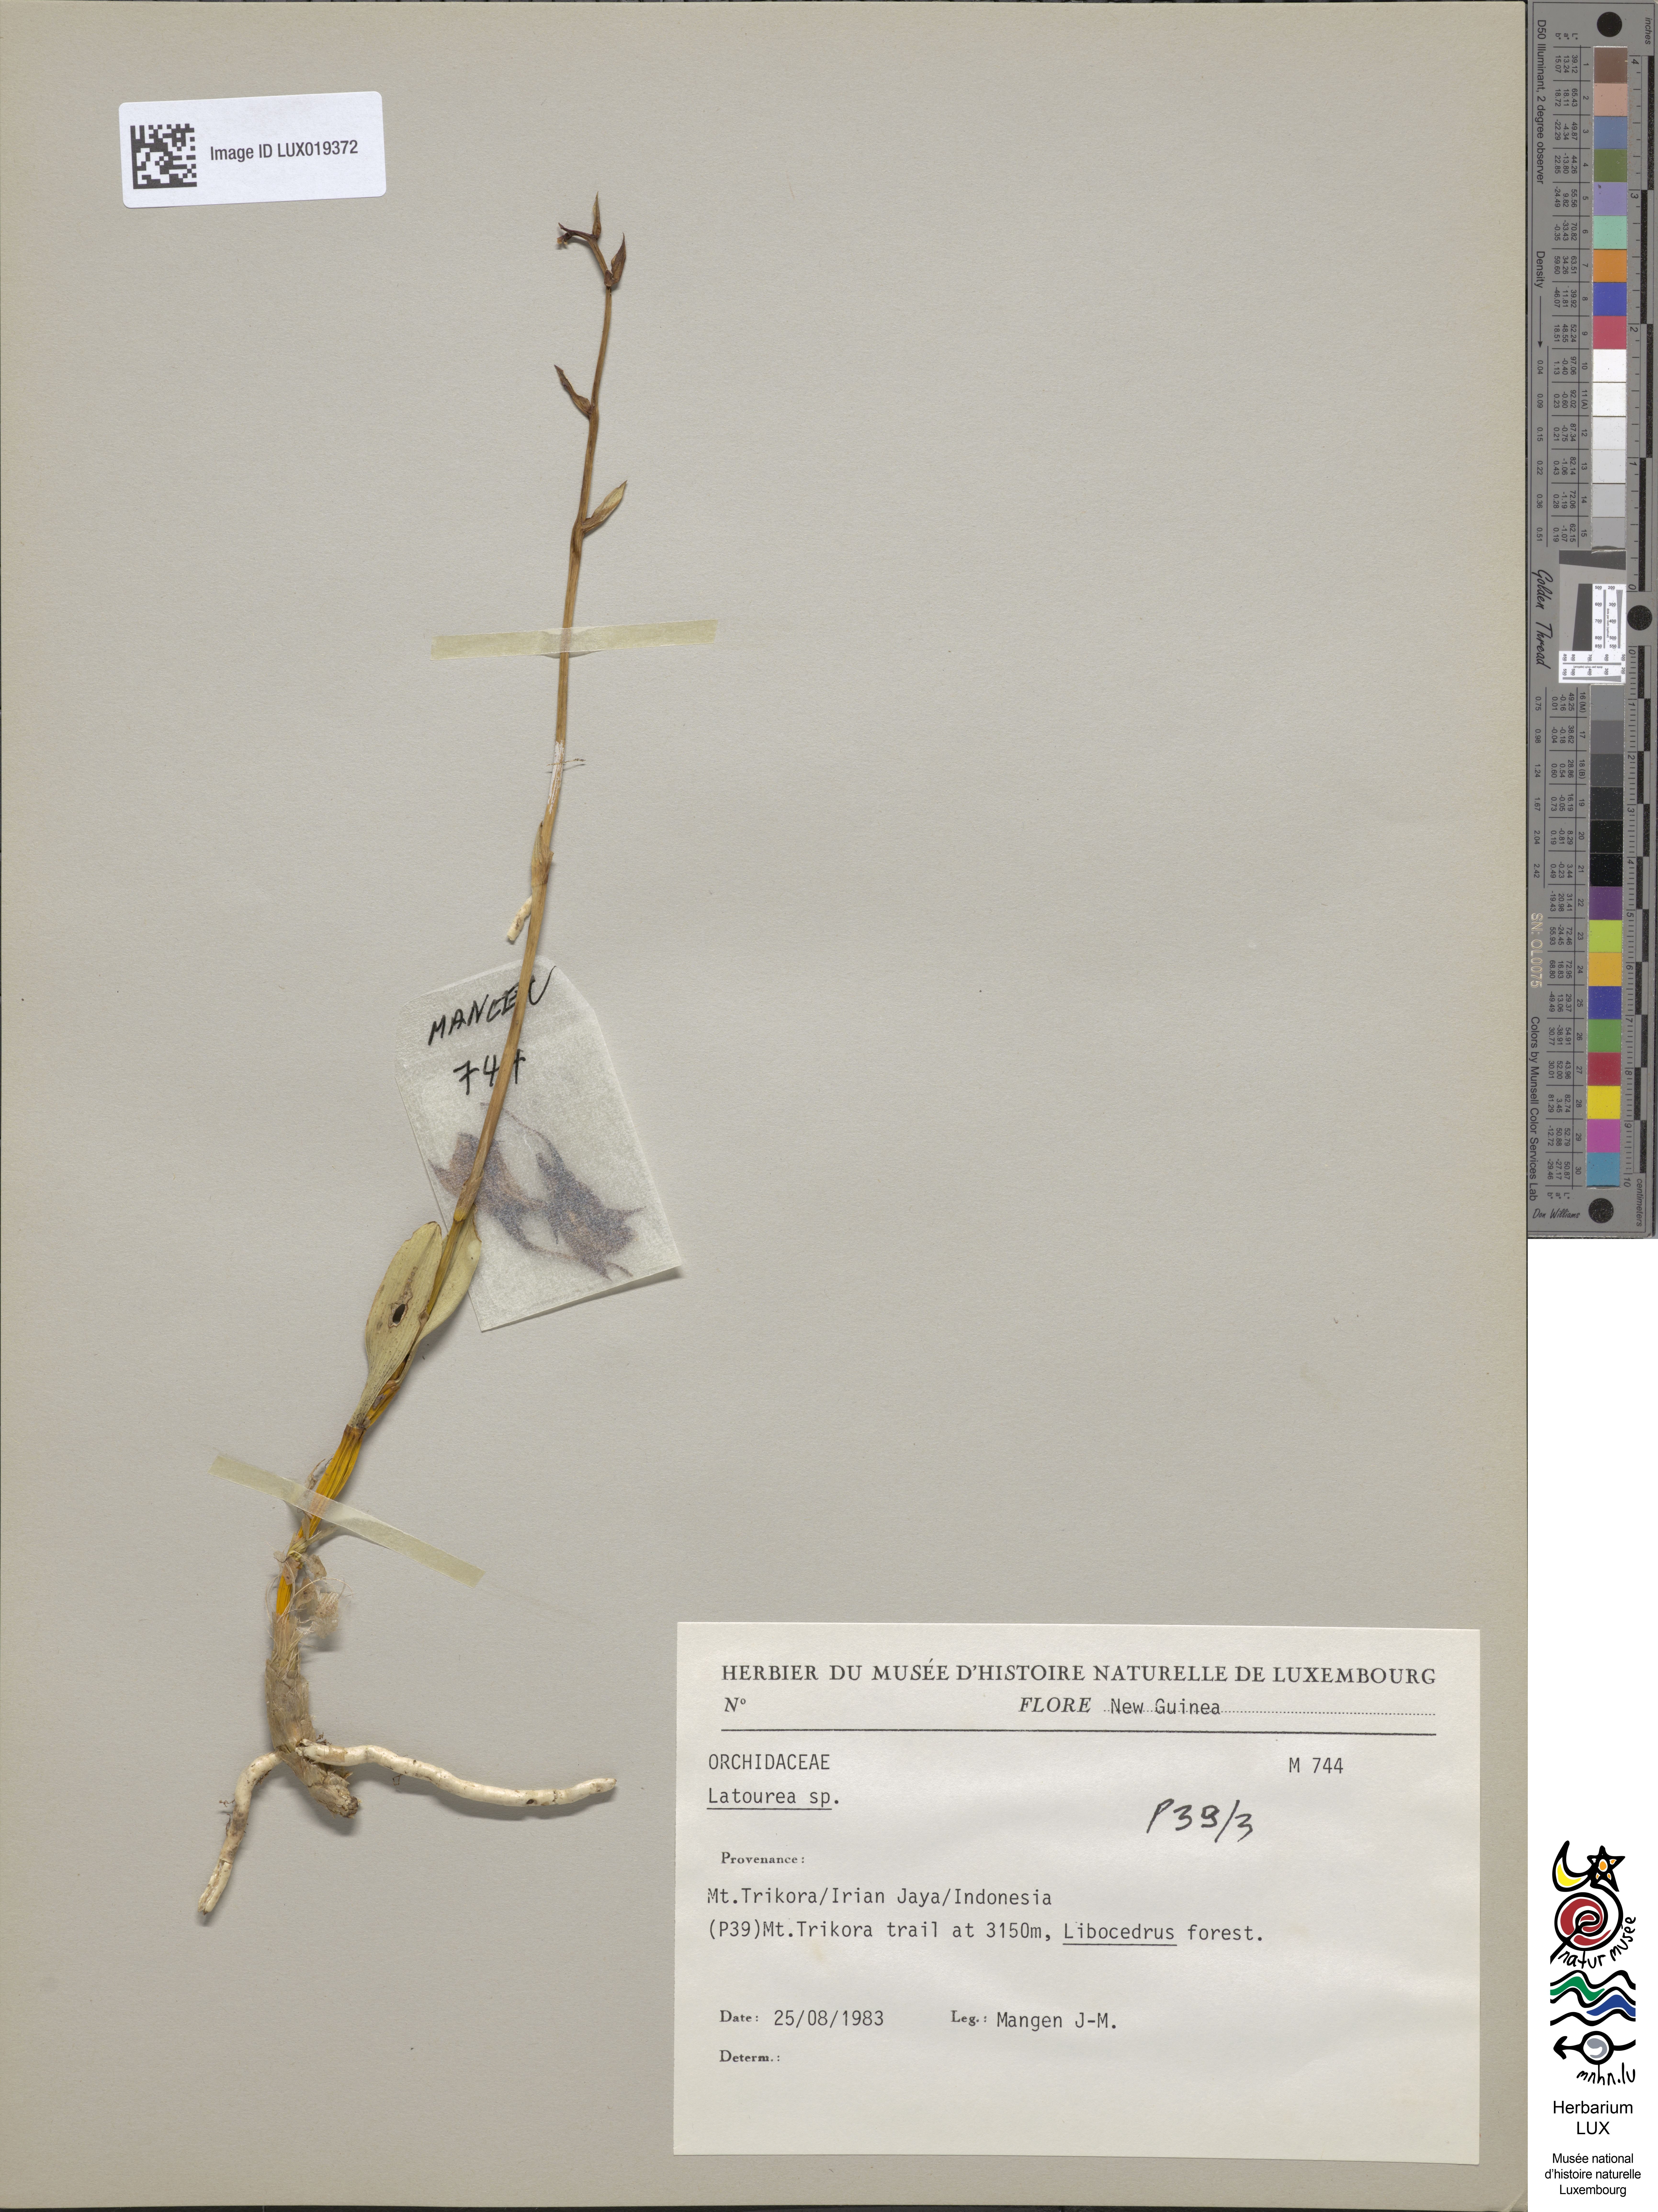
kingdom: Plantae
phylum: Tracheophyta
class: Liliopsida
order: Asparagales
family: Orchidaceae
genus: Latourea
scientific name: Latourea
